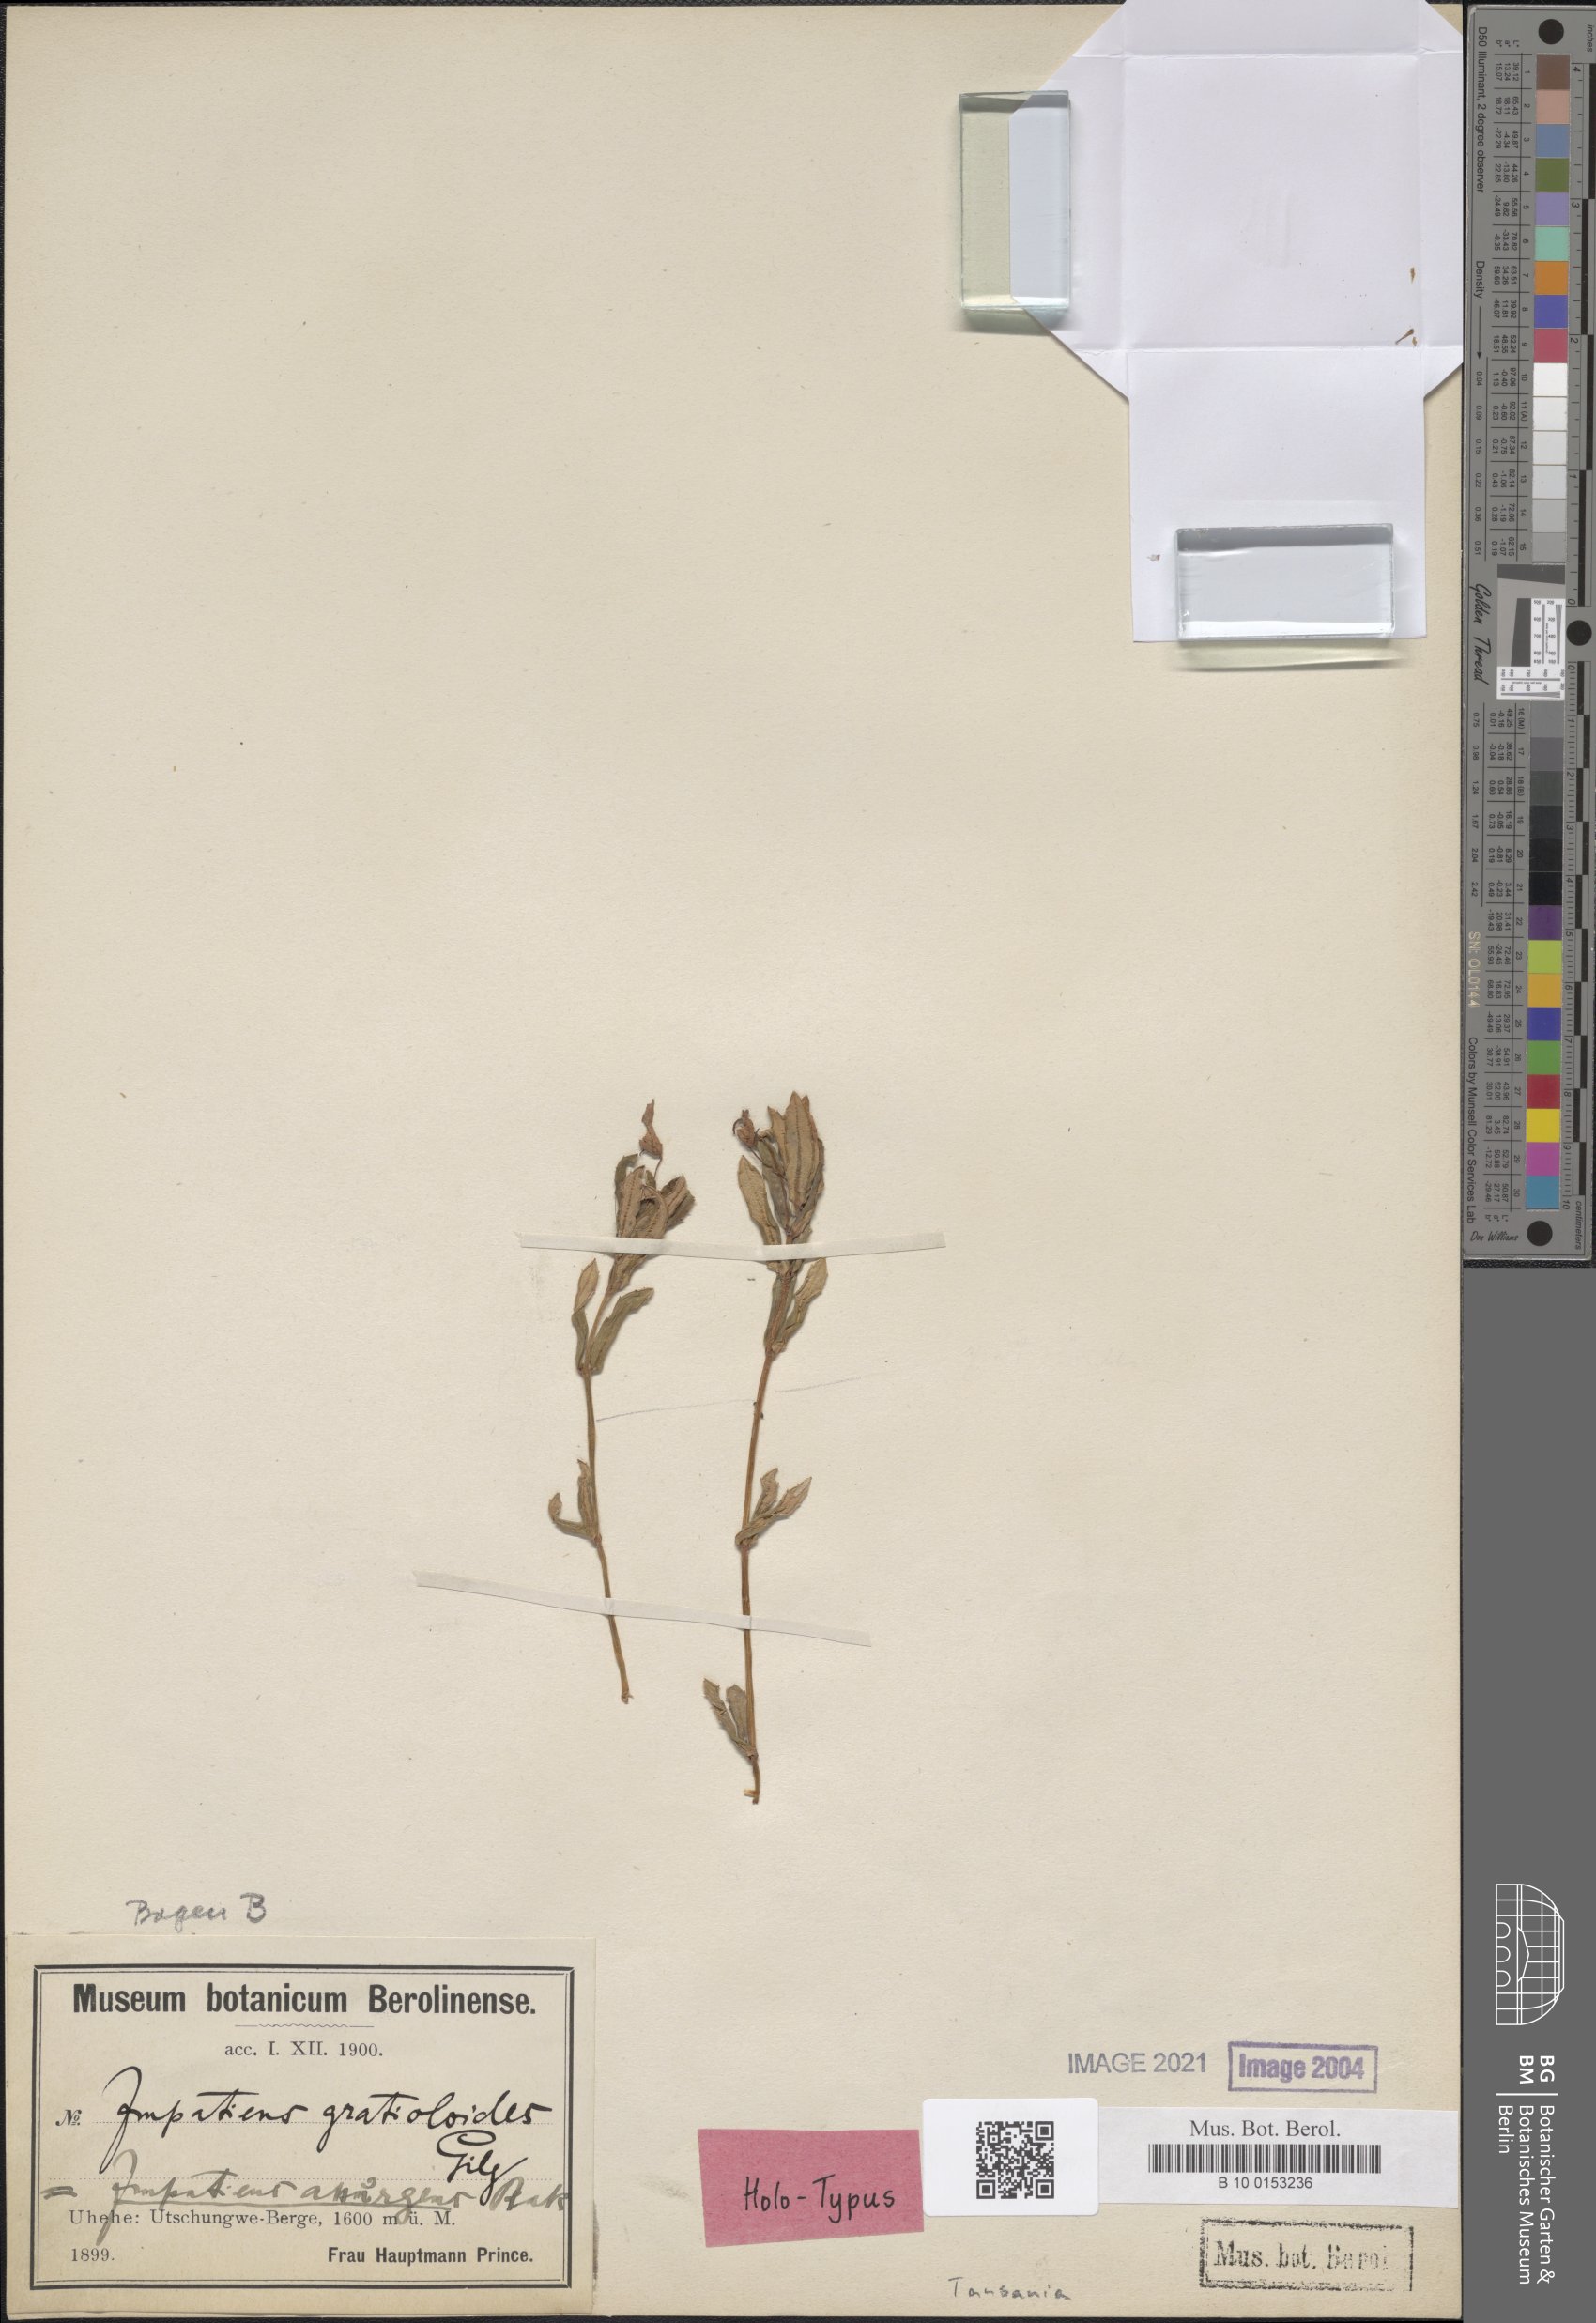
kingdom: Plantae
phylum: Tracheophyta
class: Magnoliopsida
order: Ericales
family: Balsaminaceae
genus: Impatiens
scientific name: Impatiens assurgens
